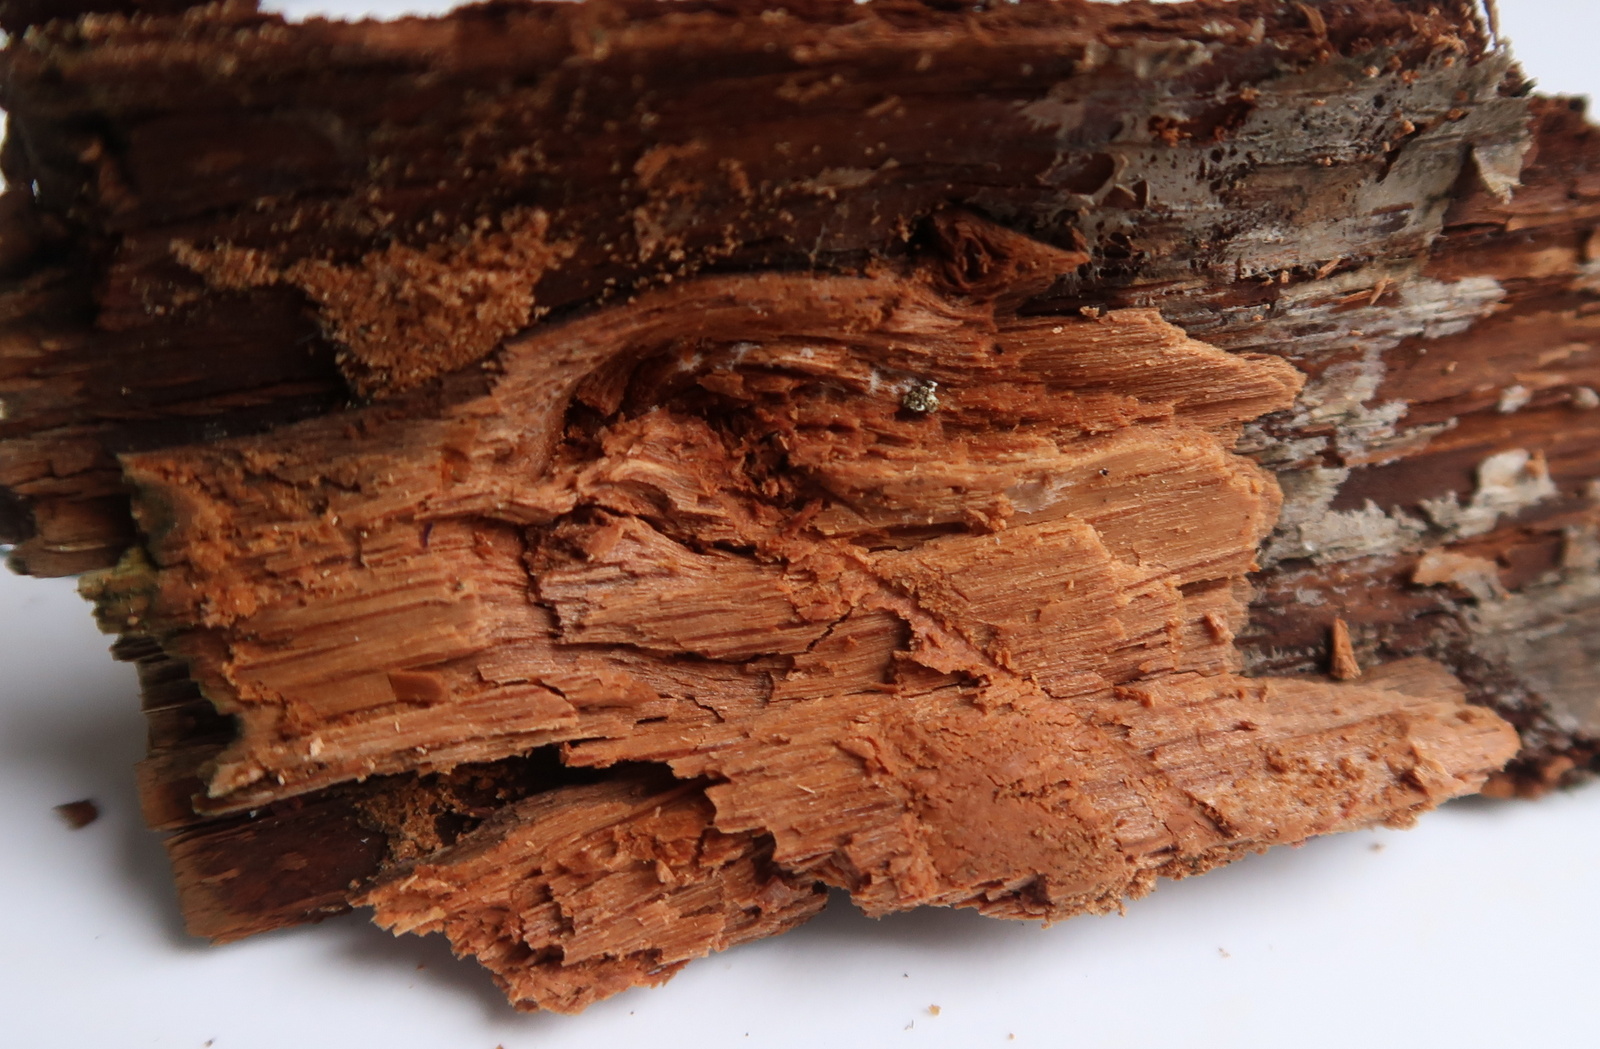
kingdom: Fungi
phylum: Ascomycota
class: Sordariomycetes
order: Boliniales
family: Boliniaceae
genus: Camaropella
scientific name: Camaropella microspora
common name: småsporet kulsnegl
